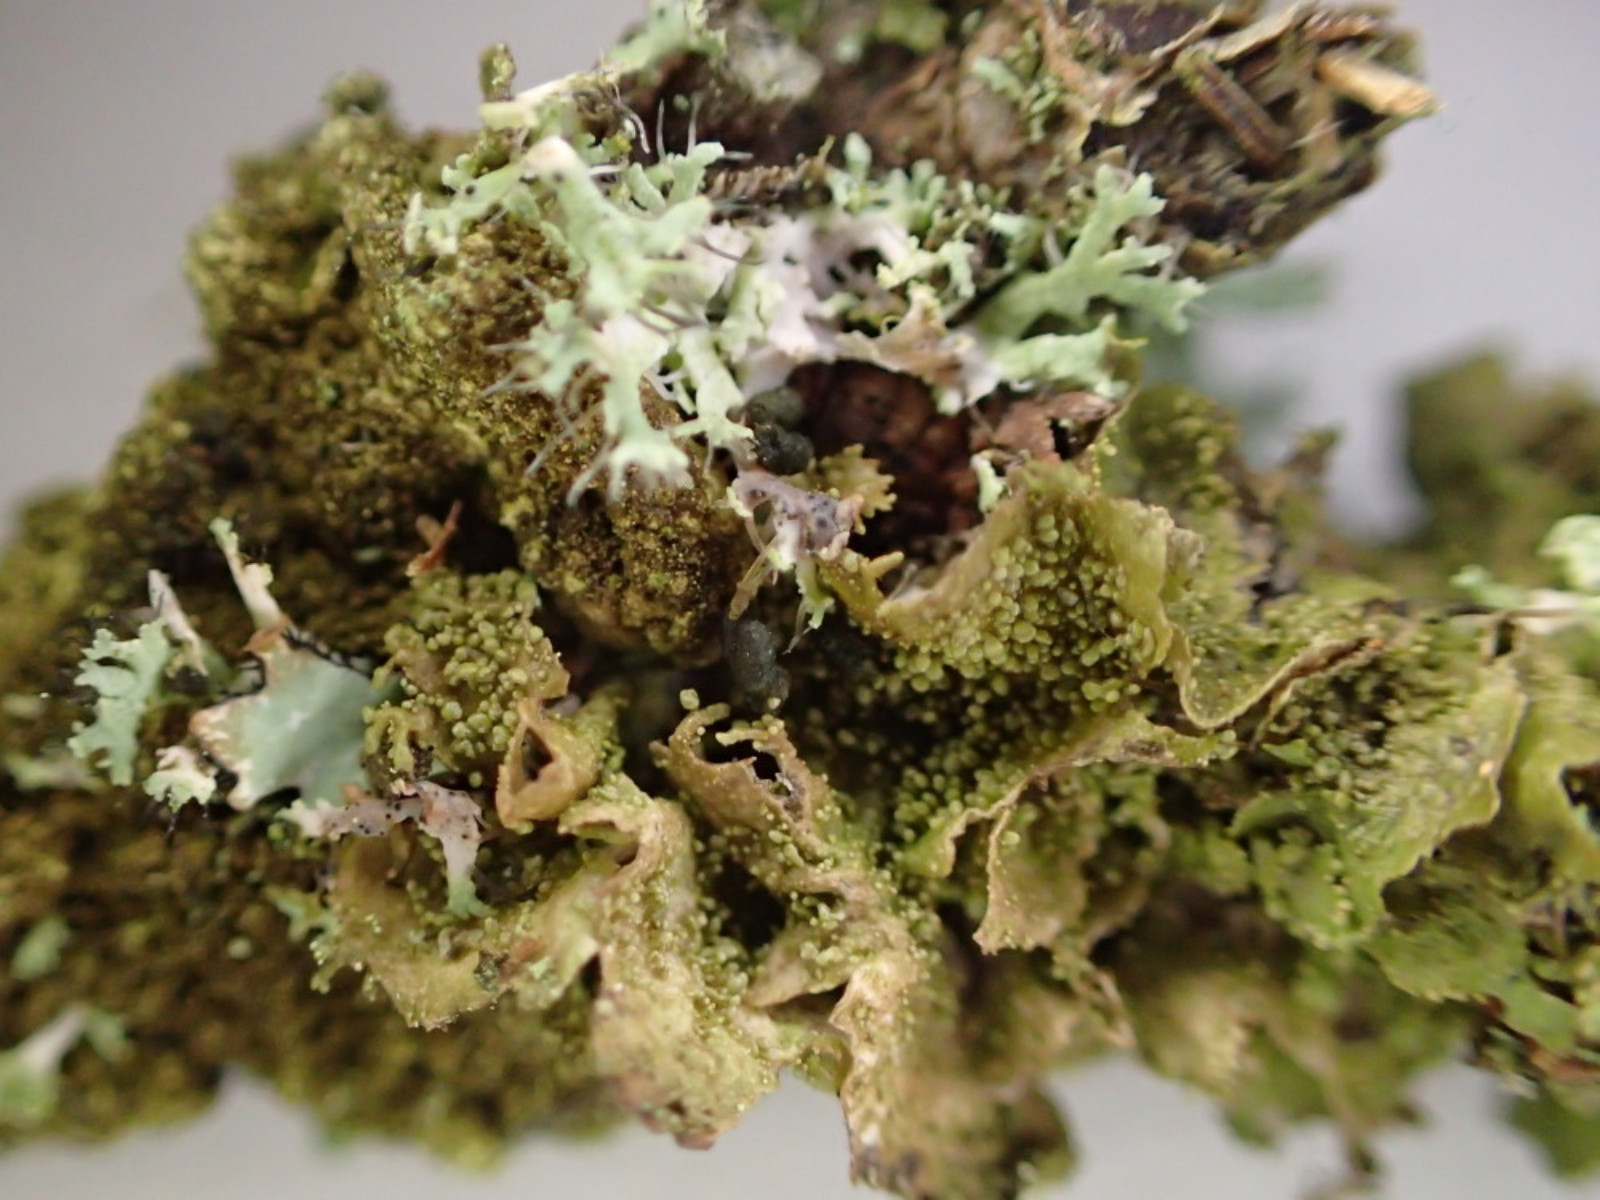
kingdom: Fungi
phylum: Ascomycota
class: Lecanoromycetes
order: Lecanorales
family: Parmeliaceae
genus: Melanohalea
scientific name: Melanohalea exasperatula
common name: kølle-skållav
